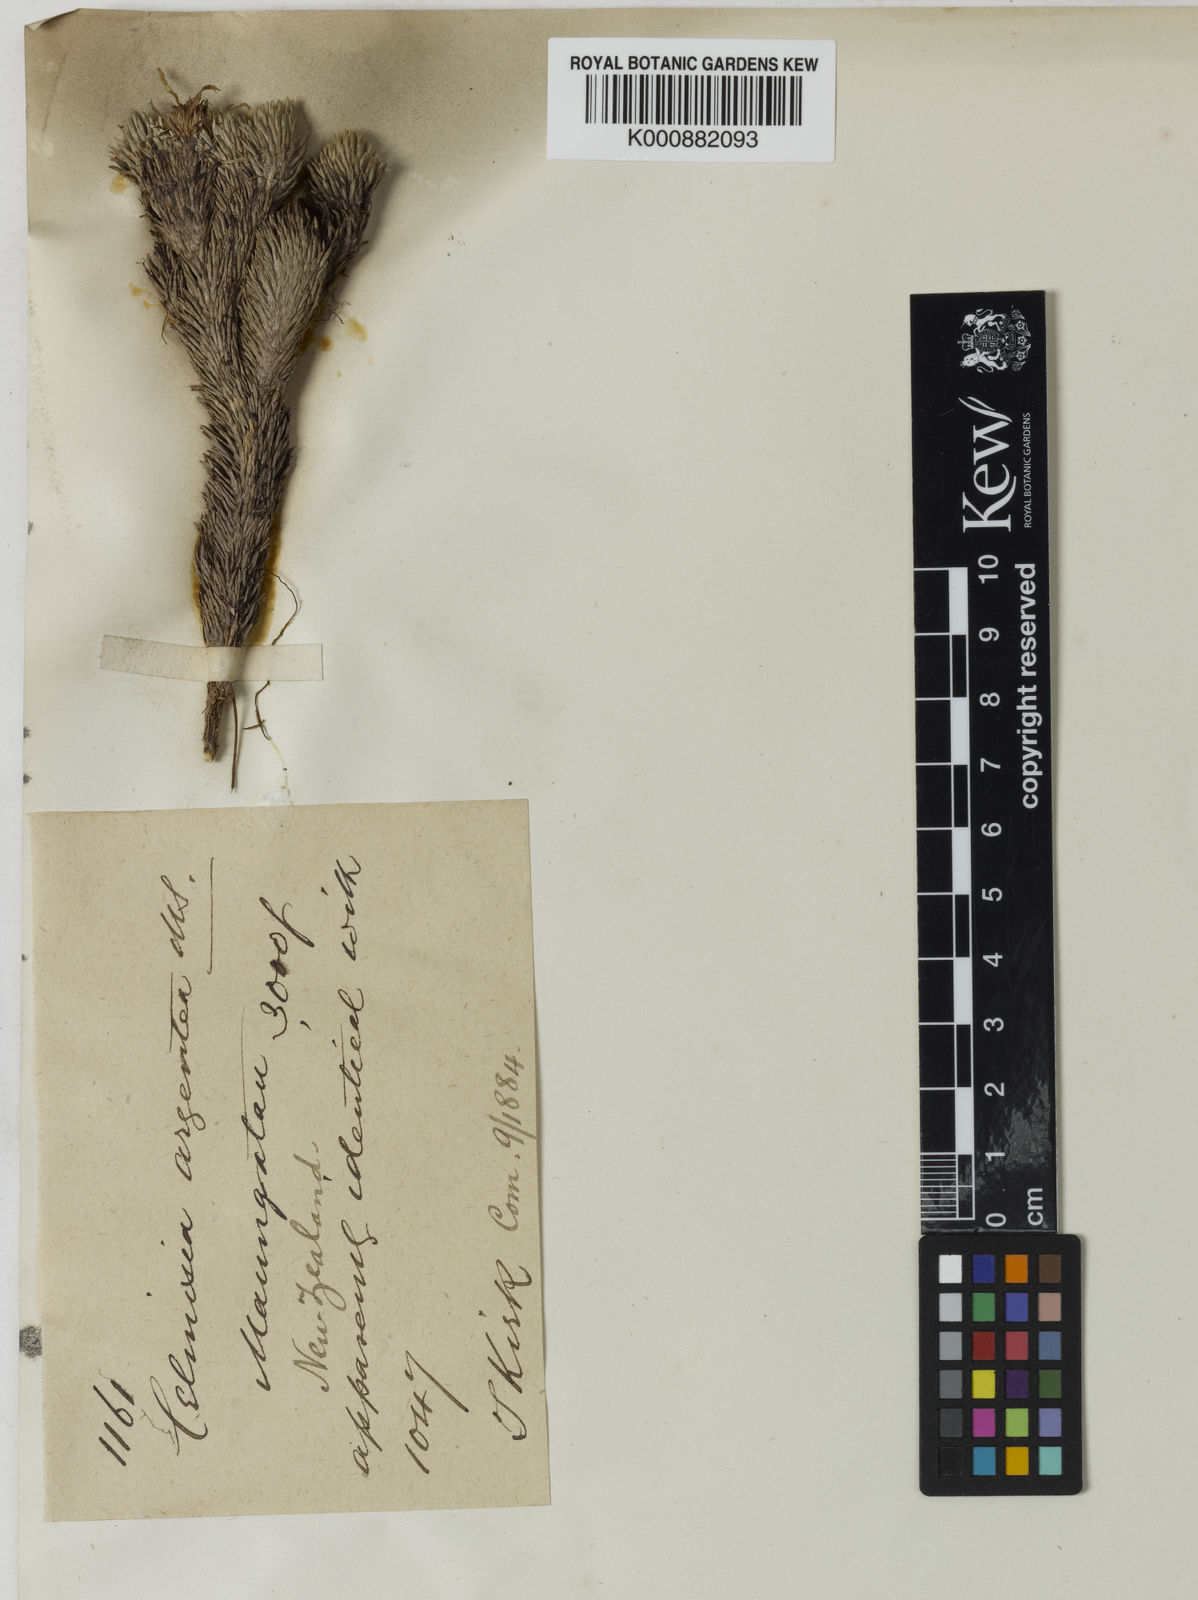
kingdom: Plantae
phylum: Tracheophyta
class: Magnoliopsida
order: Asterales
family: Asteraceae
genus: Celmisia
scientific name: Celmisia argentea
